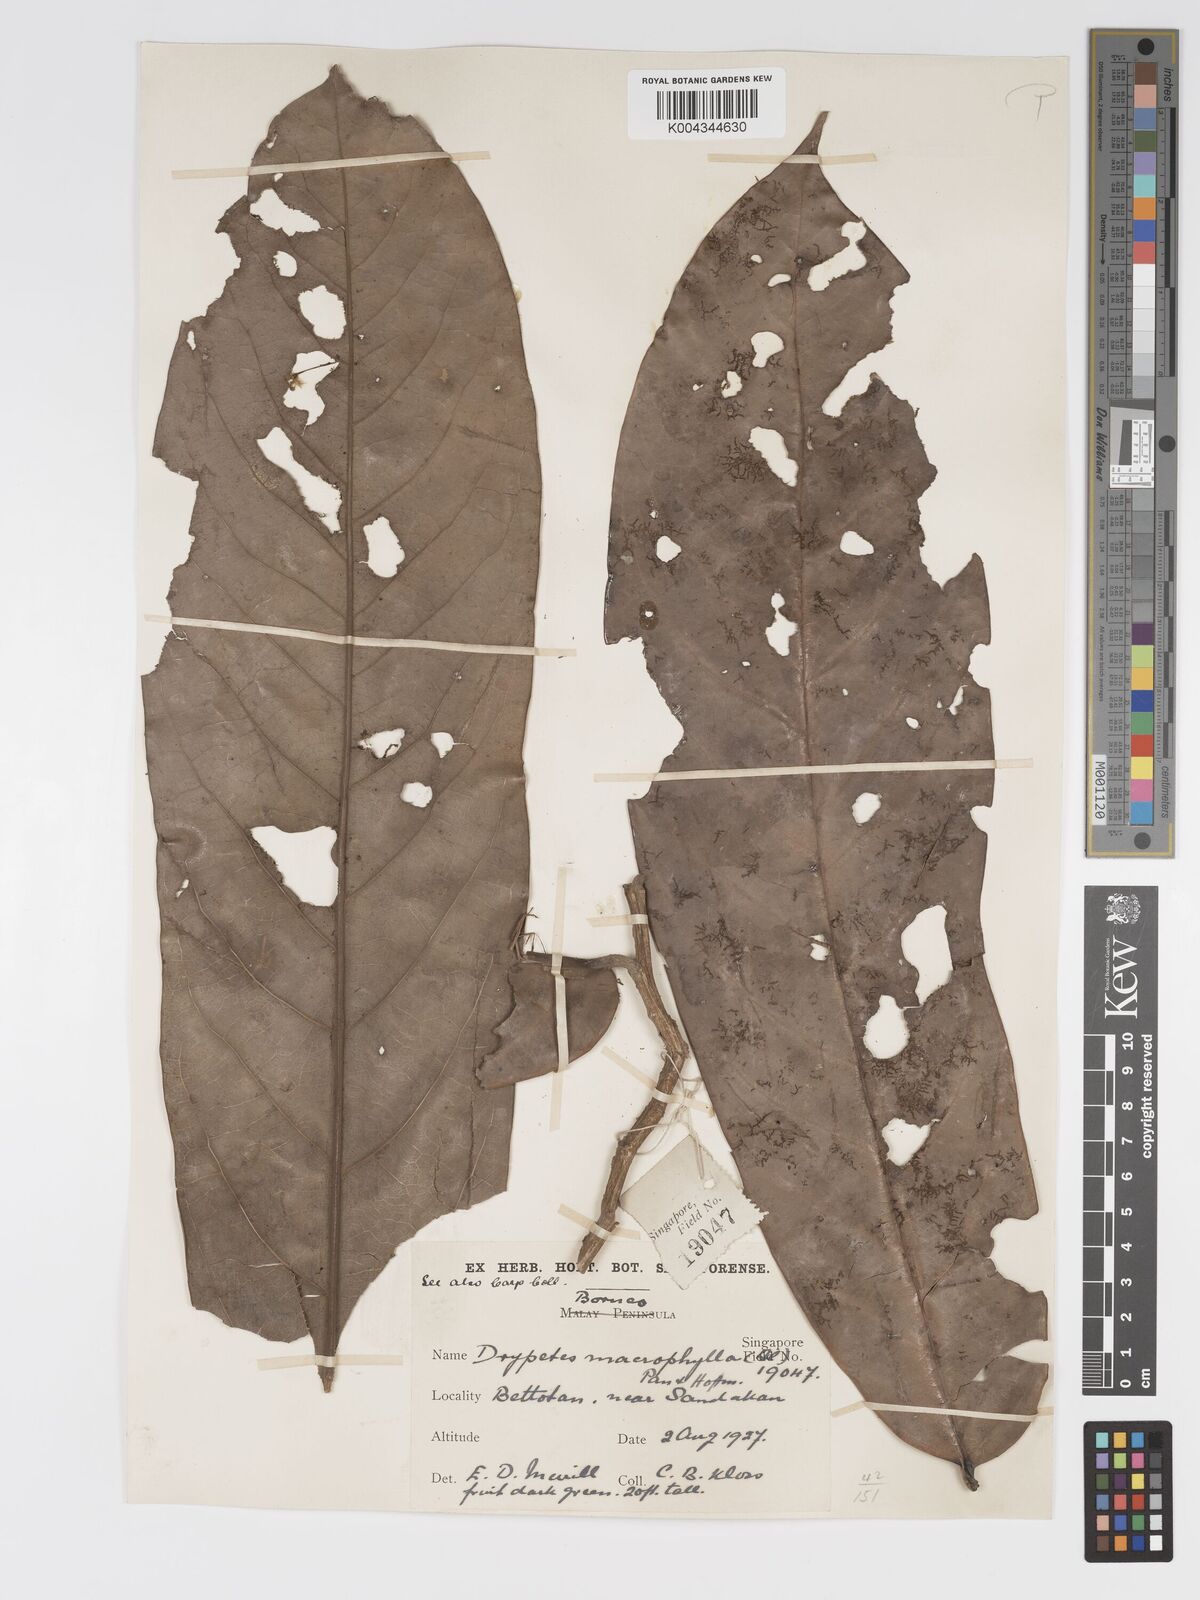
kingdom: Plantae
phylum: Tracheophyta
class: Magnoliopsida
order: Malpighiales
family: Putranjivaceae
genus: Drypetes
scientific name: Drypetes longifolia
